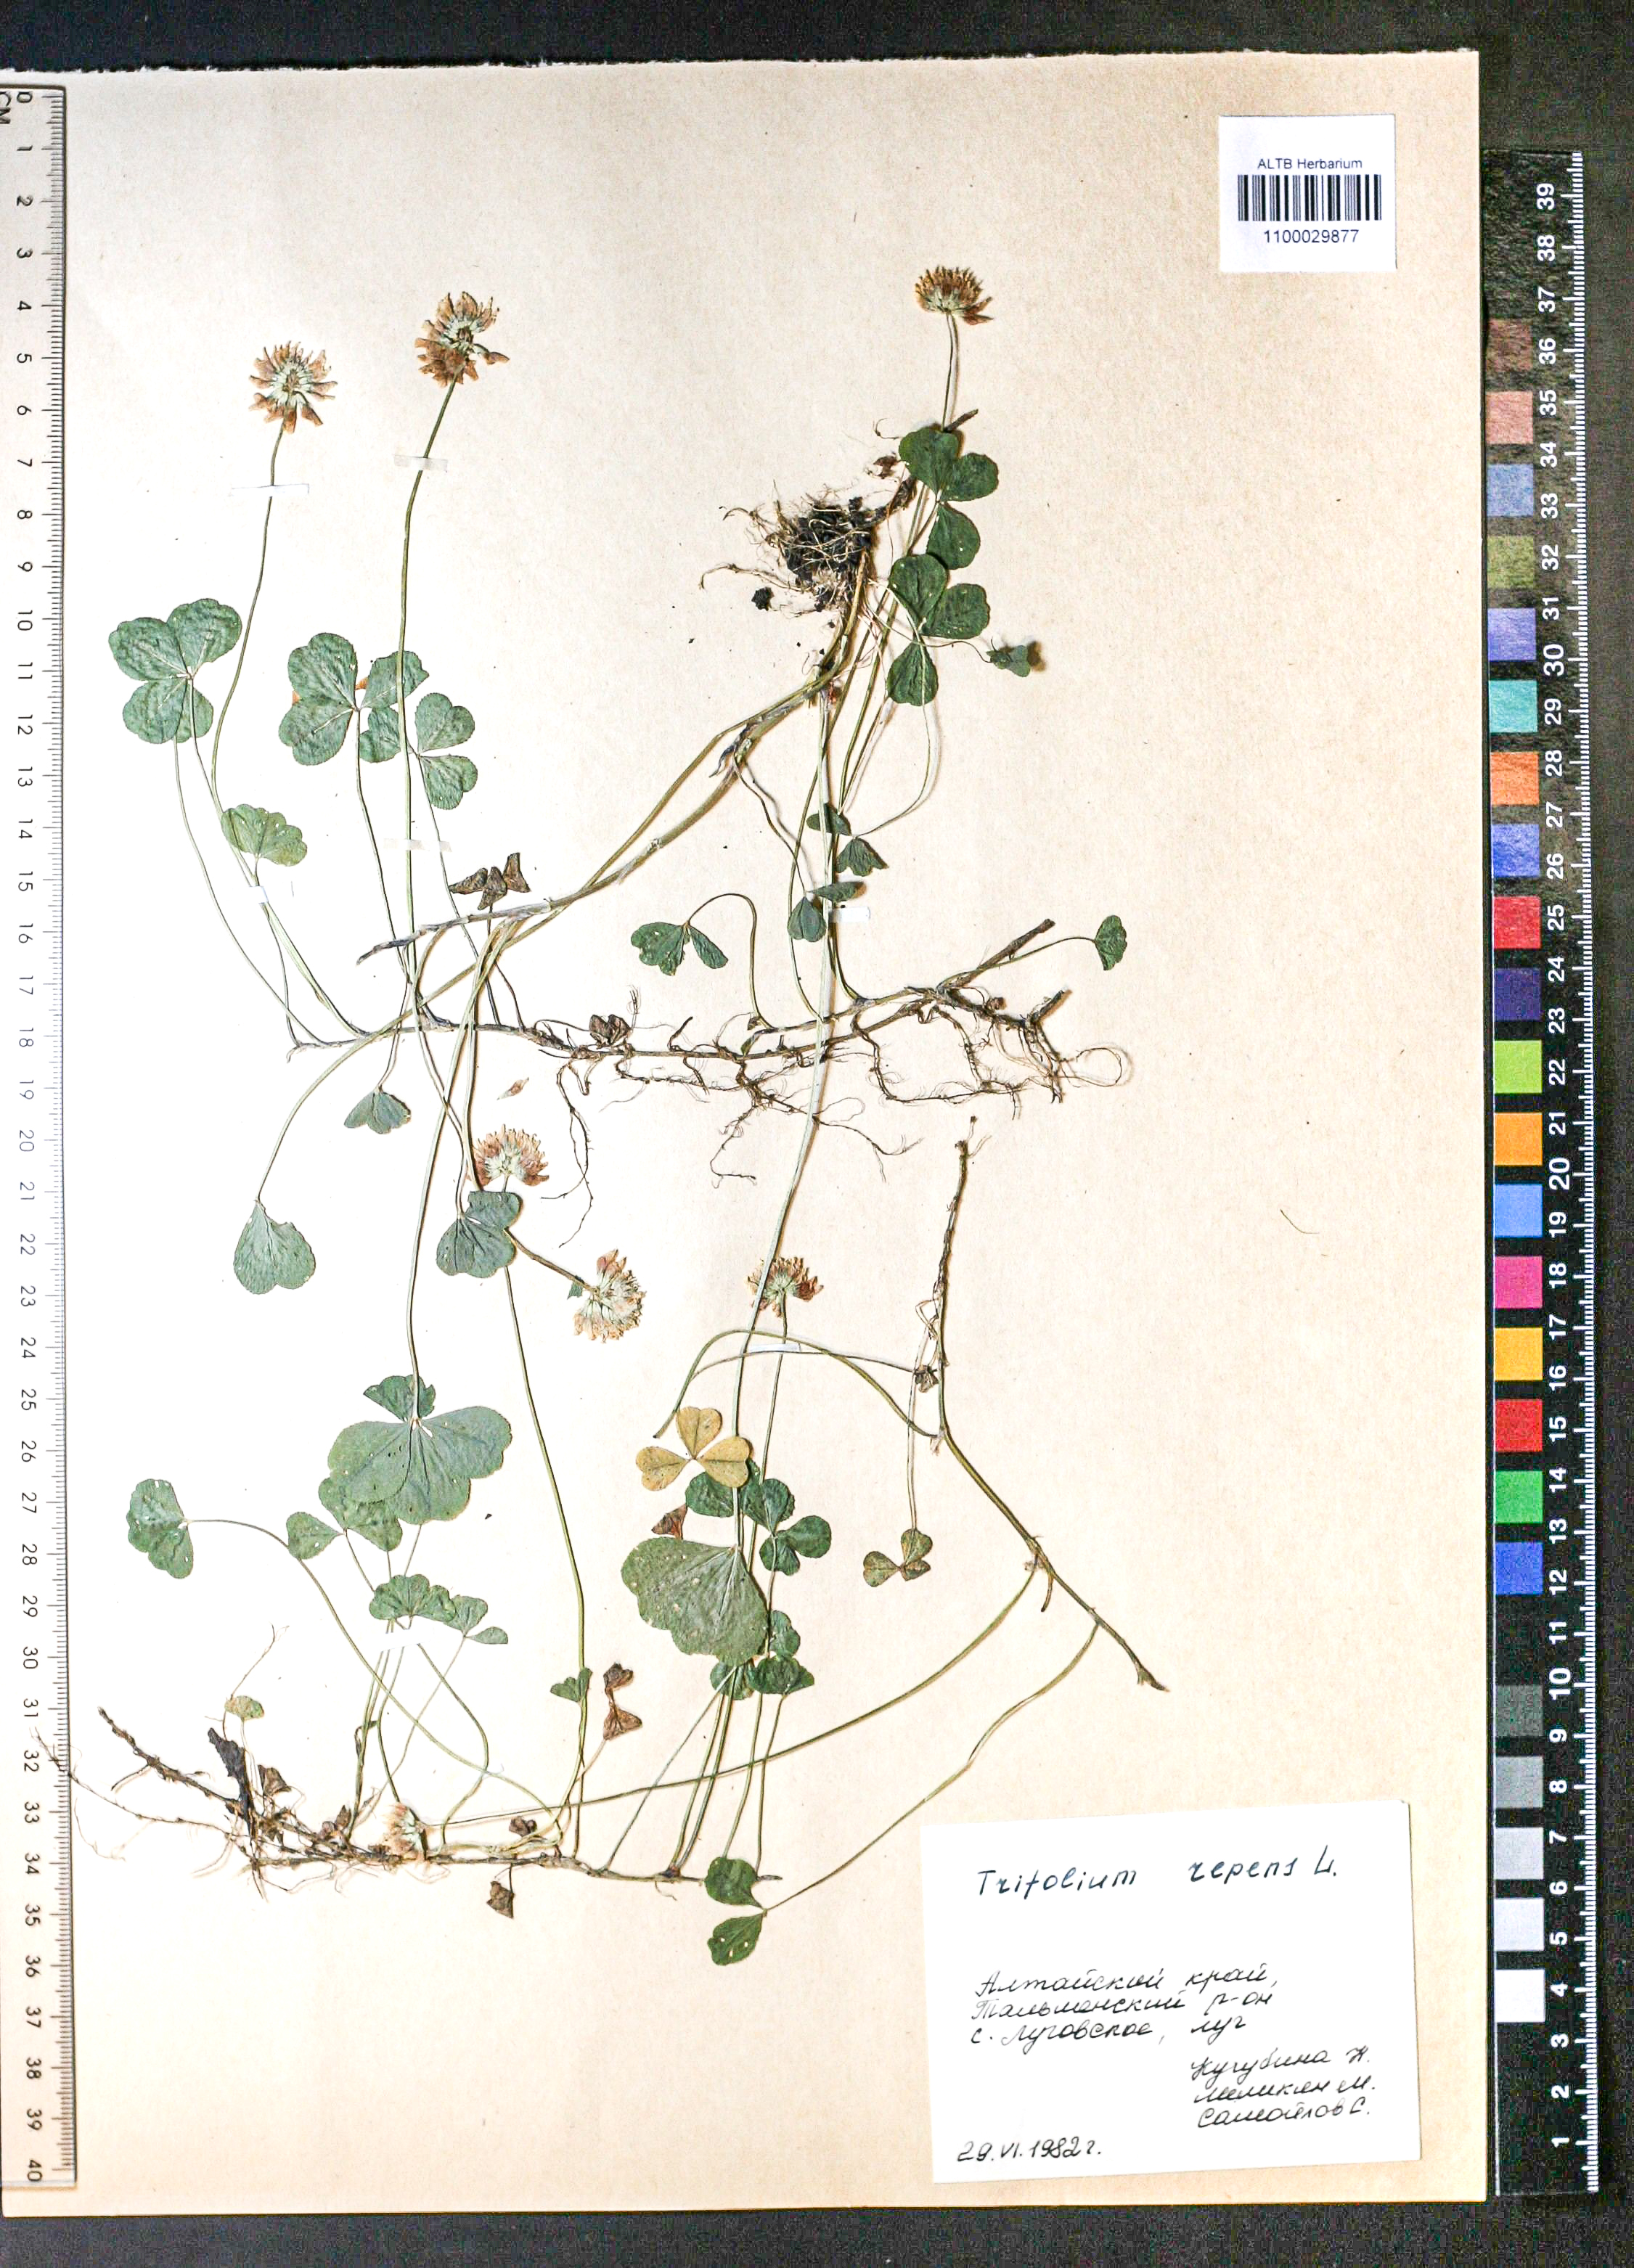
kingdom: Plantae
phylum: Tracheophyta
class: Magnoliopsida
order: Fabales
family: Fabaceae
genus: Trifolium
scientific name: Trifolium repens
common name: White clover
